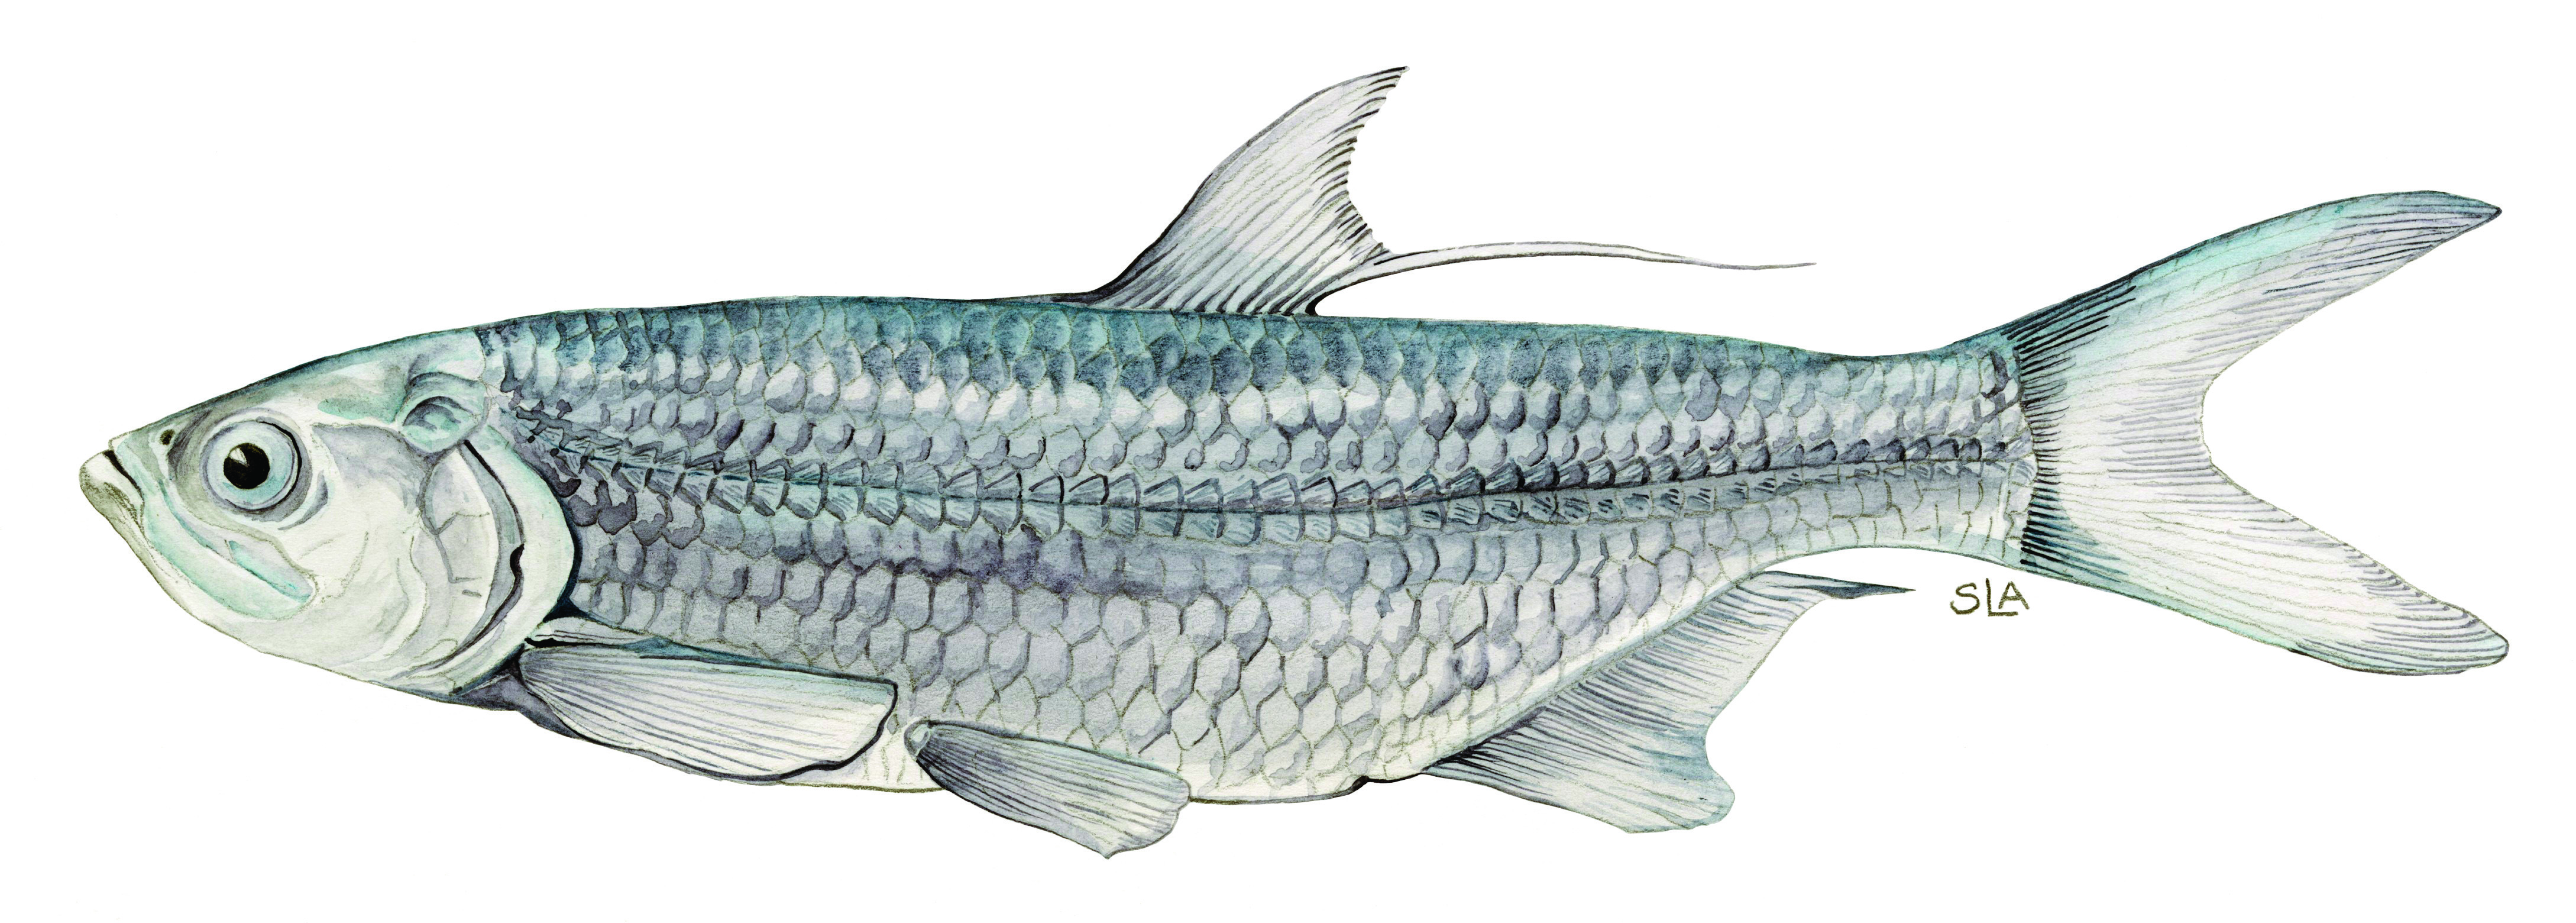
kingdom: Animalia
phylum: Chordata
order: Elopiformes
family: Megalopidae
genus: Megalops
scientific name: Megalops atlanticus
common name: Tarpon
